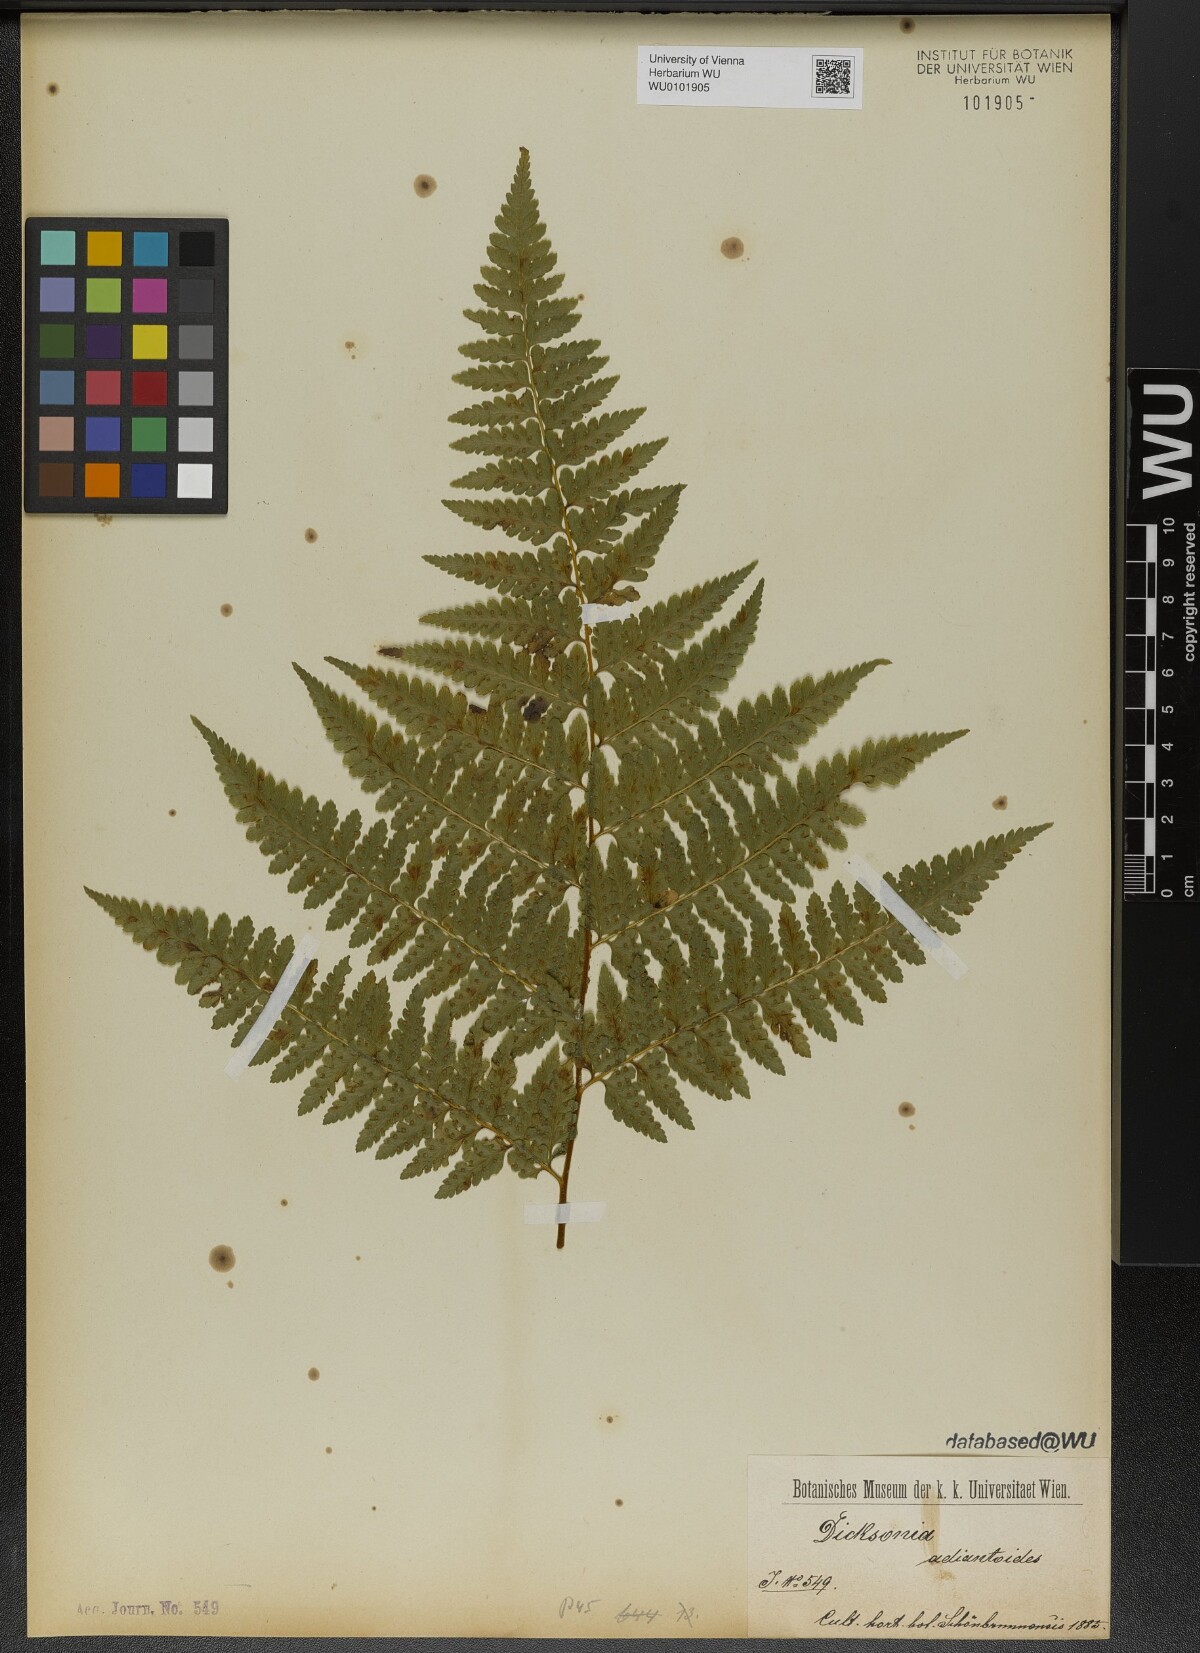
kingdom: Plantae
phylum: Tracheophyta
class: Polypodiopsida
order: Polypodiales
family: Dennstaedtiaceae
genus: Mucura
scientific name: Mucura bipinnata
